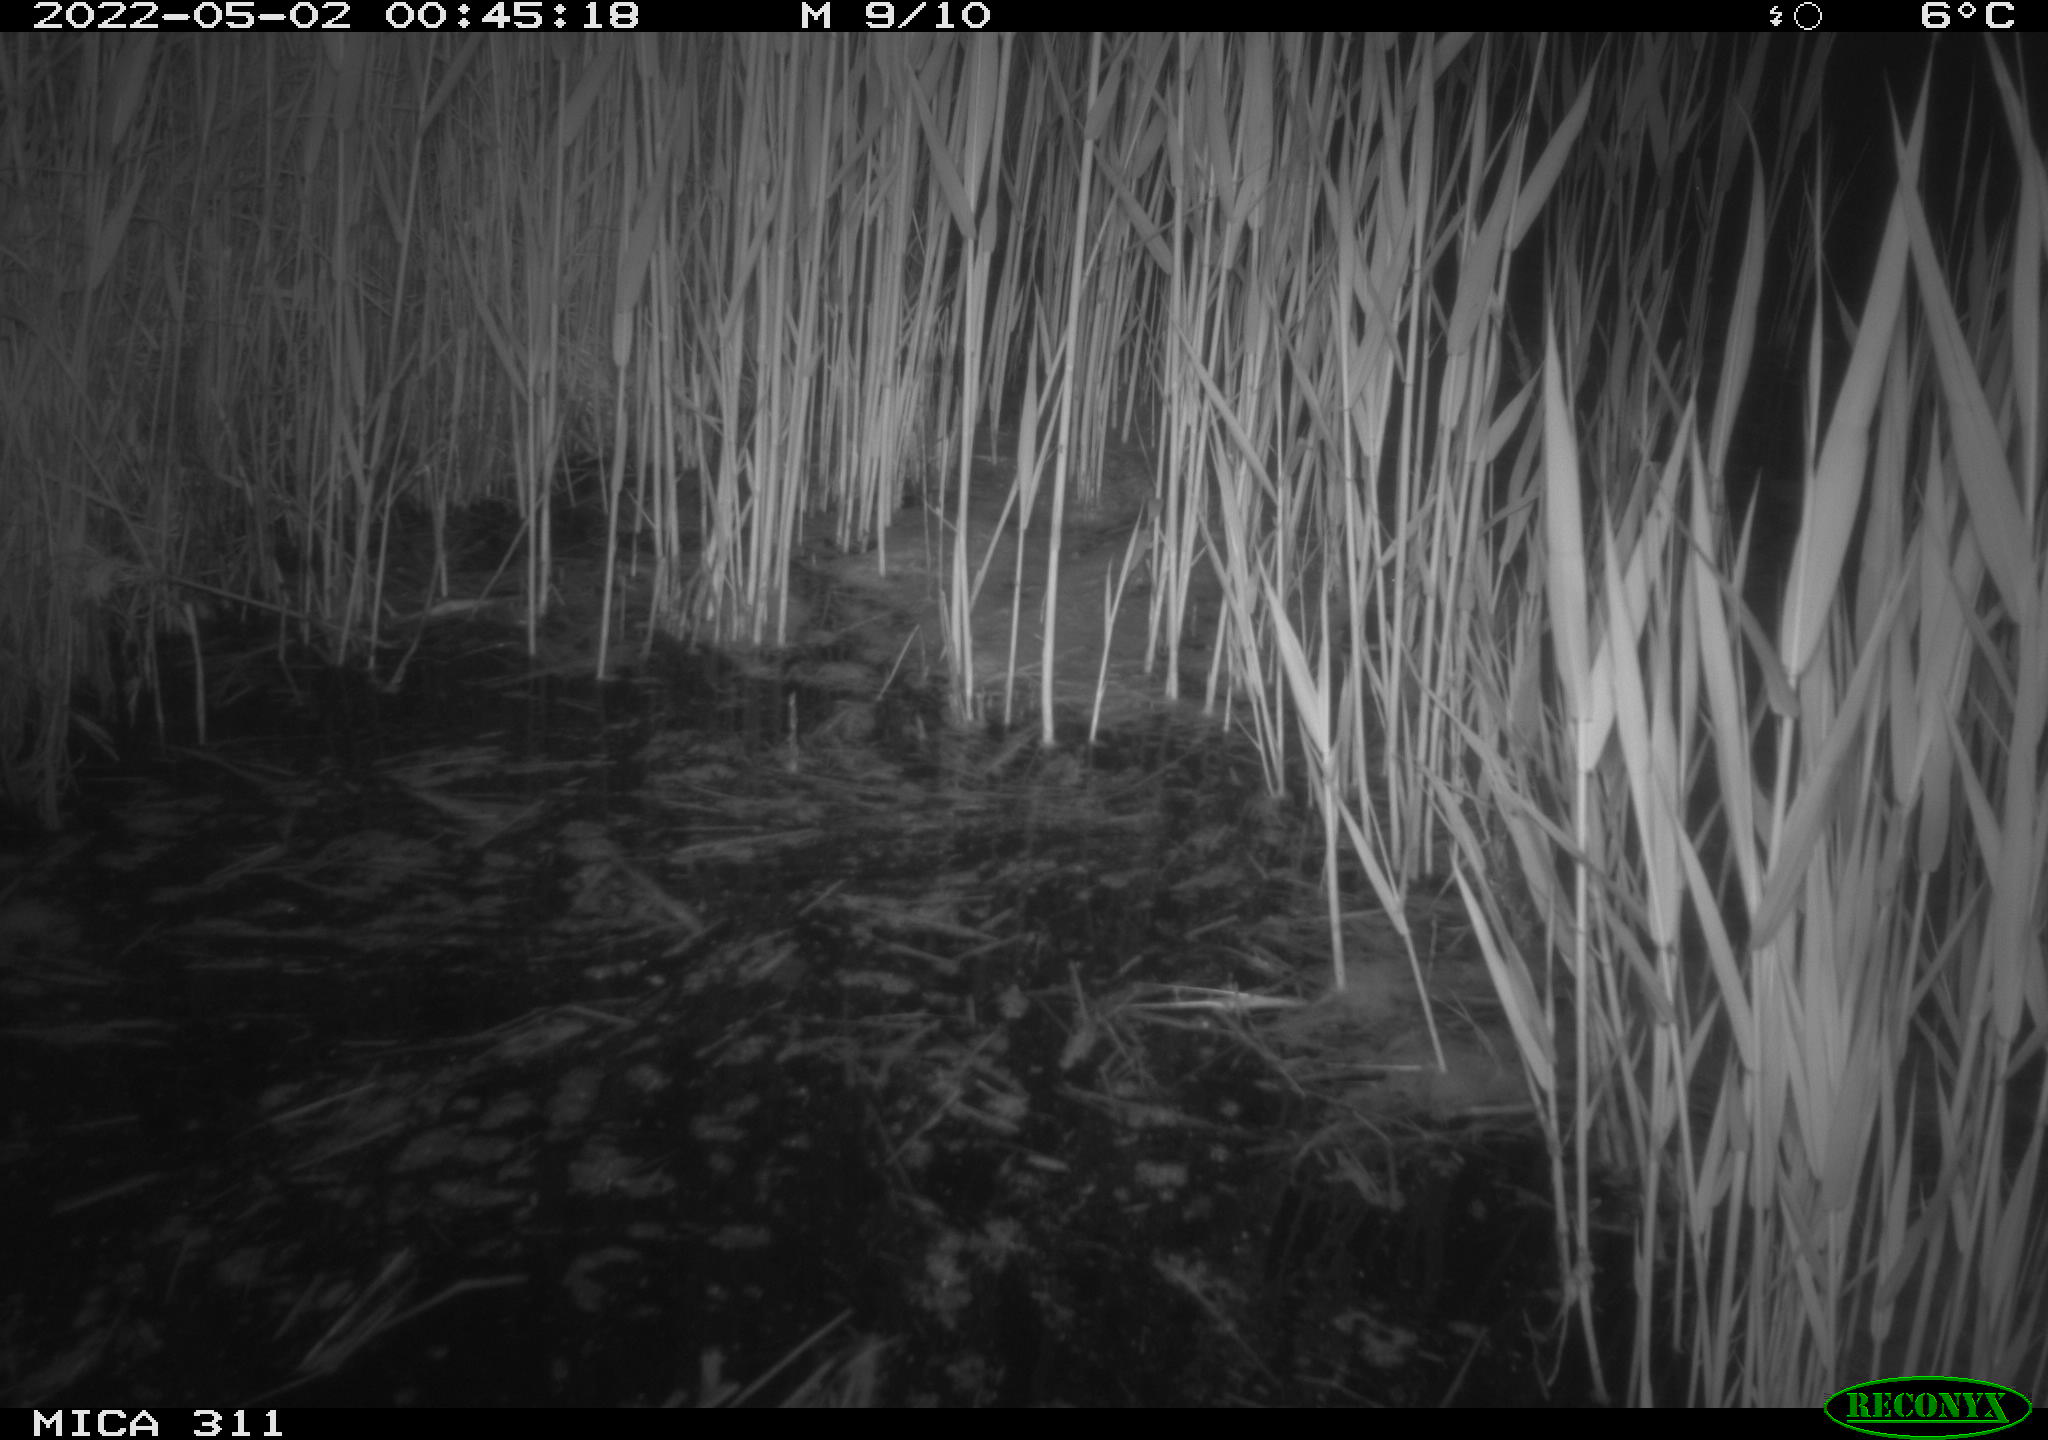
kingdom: Animalia
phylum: Chordata
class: Aves
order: Anseriformes
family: Anatidae
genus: Anas
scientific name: Anas
